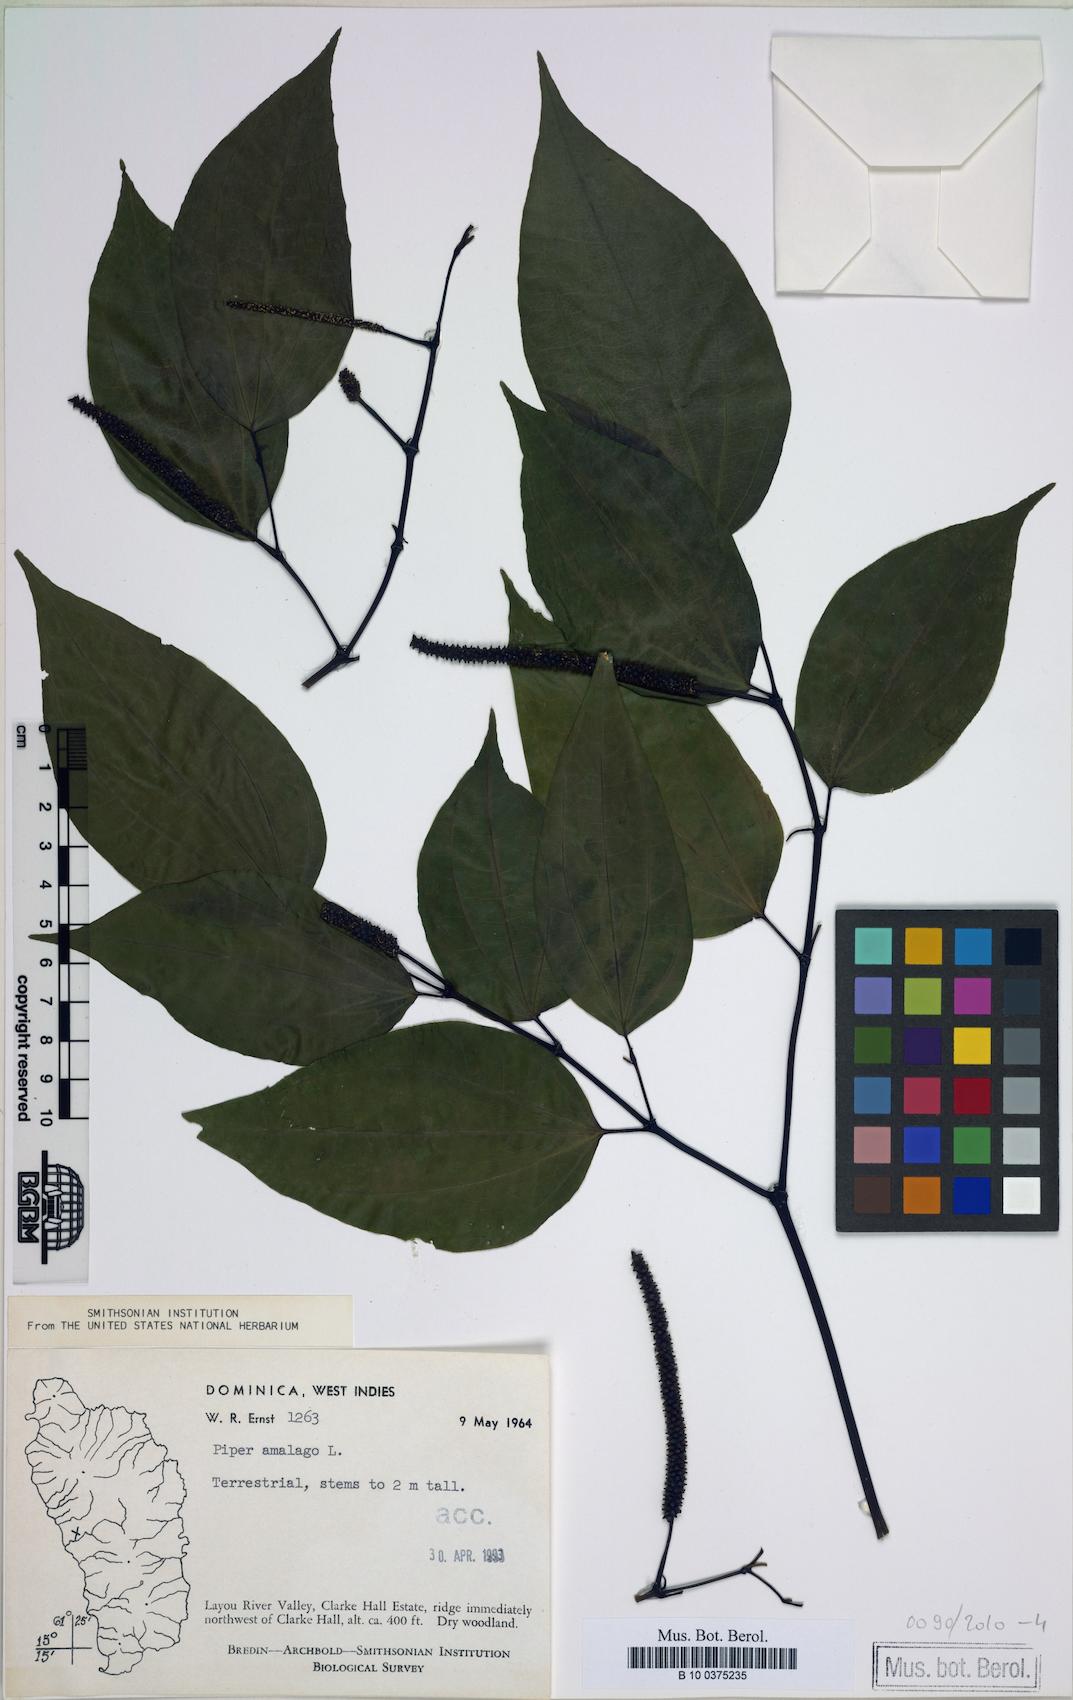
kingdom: Plantae
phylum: Tracheophyta
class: Magnoliopsida
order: Piperales
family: Piperaceae
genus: Piper
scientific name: Piper amalago
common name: Pepper-elder
